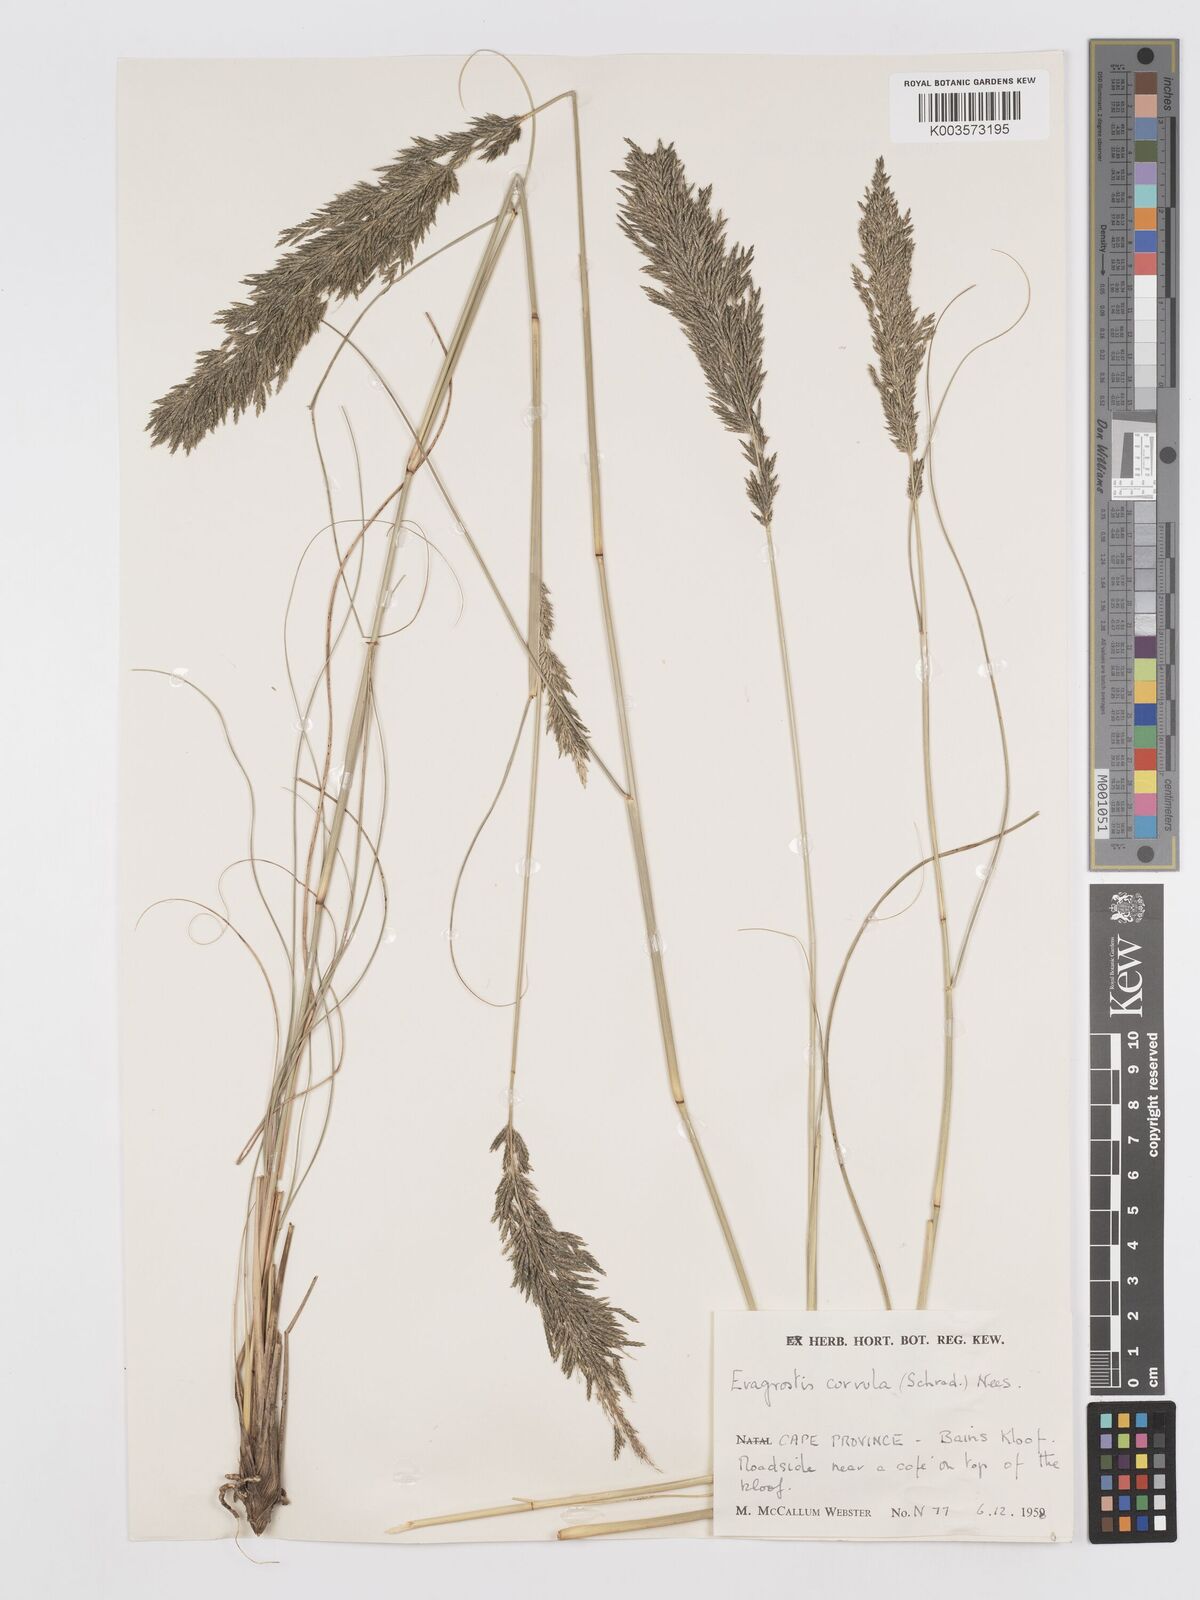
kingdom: Plantae
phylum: Tracheophyta
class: Liliopsida
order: Poales
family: Poaceae
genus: Eragrostis
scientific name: Eragrostis curvula
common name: African love-grass
